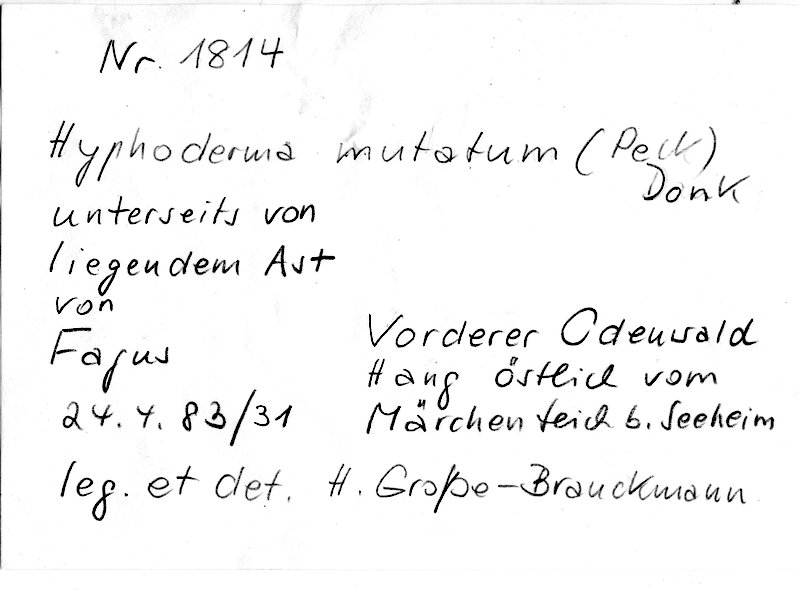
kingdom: Plantae
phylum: Tracheophyta
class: Magnoliopsida
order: Fagales
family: Fagaceae
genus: Fagus
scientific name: Fagus sylvatica
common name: Beech
